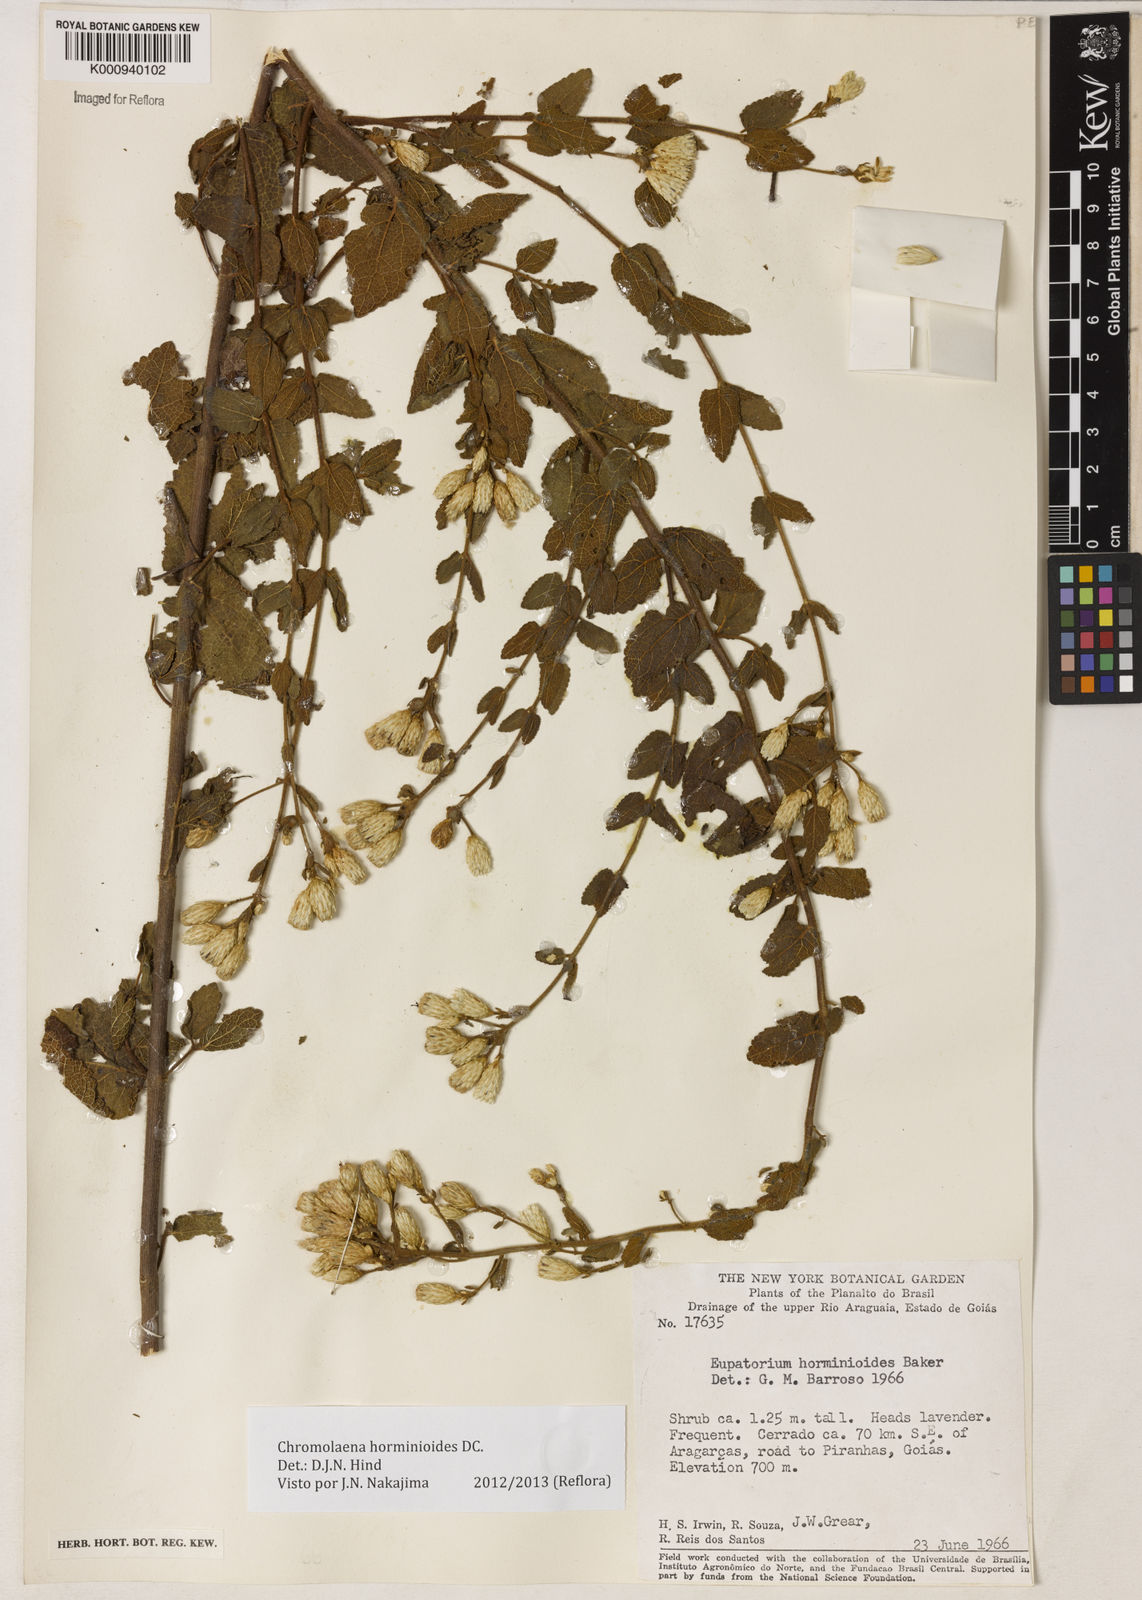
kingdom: Plantae
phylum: Tracheophyta
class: Magnoliopsida
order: Asterales
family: Asteraceae
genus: Chromolaena
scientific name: Chromolaena horminoides
